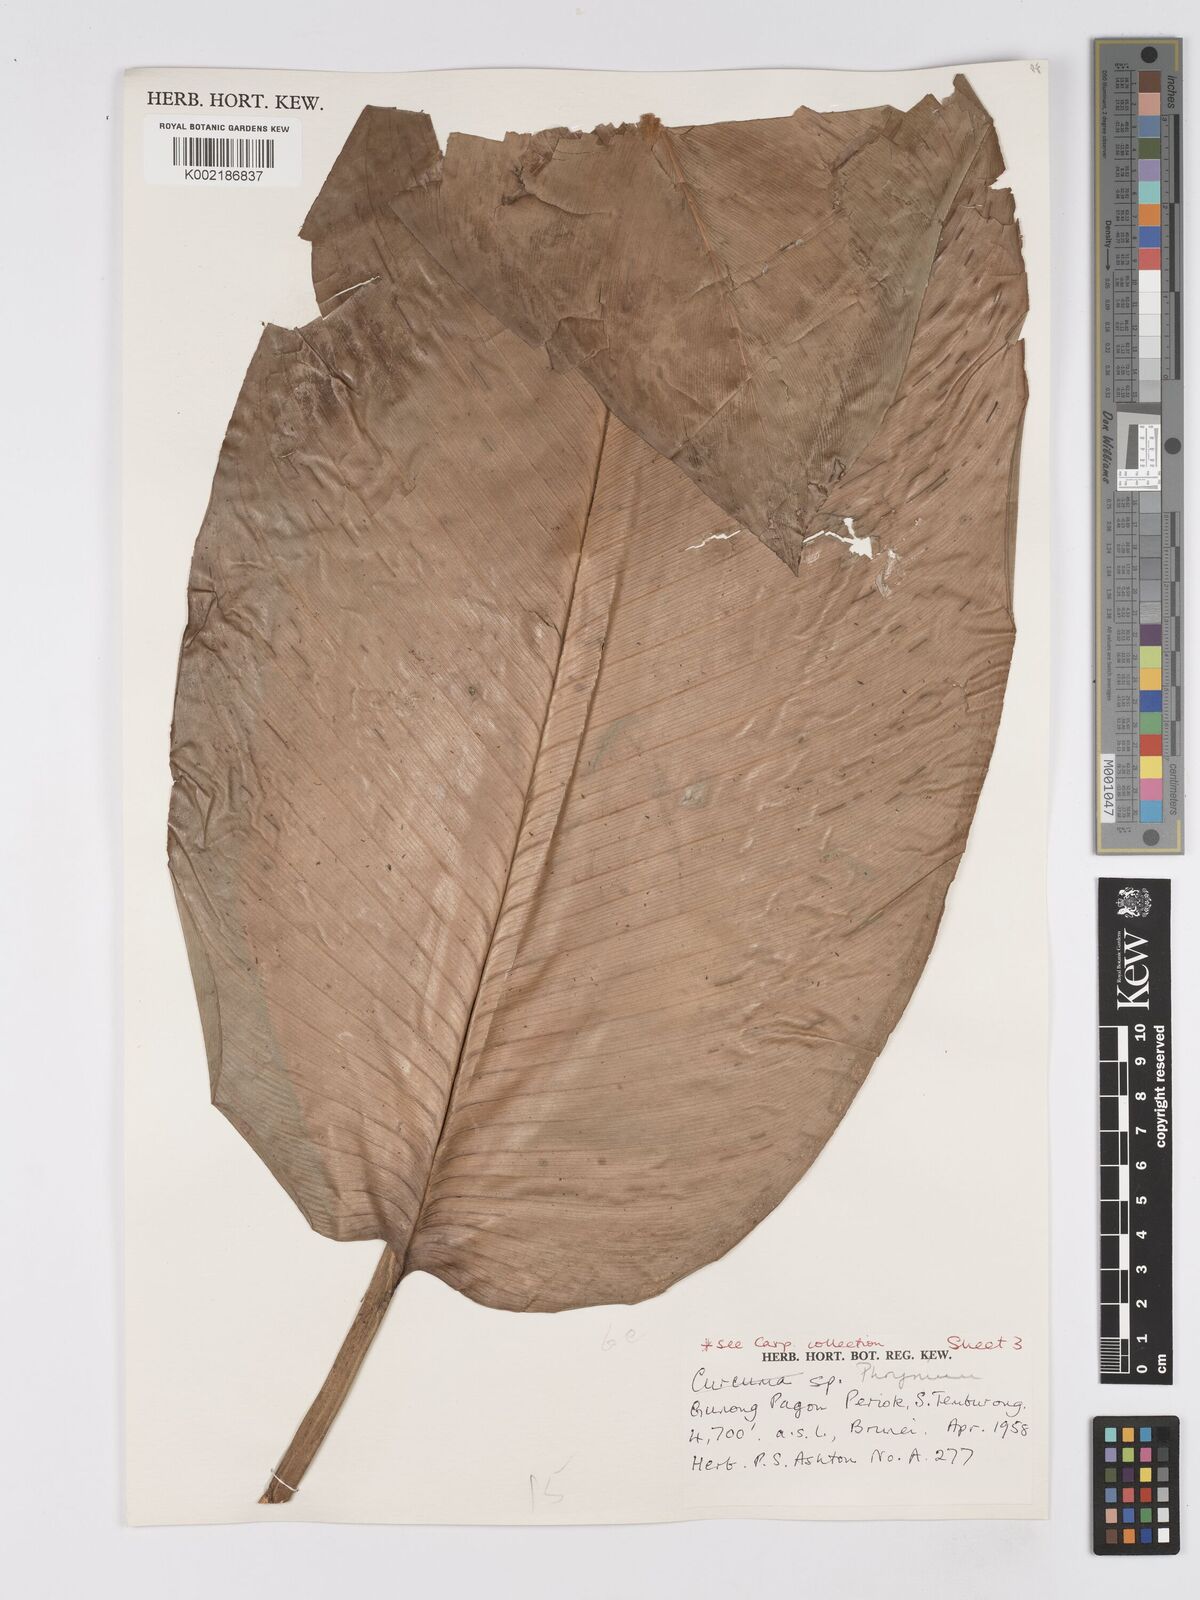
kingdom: Plantae
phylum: Tracheophyta
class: Liliopsida
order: Zingiberales
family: Marantaceae
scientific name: Marantaceae
